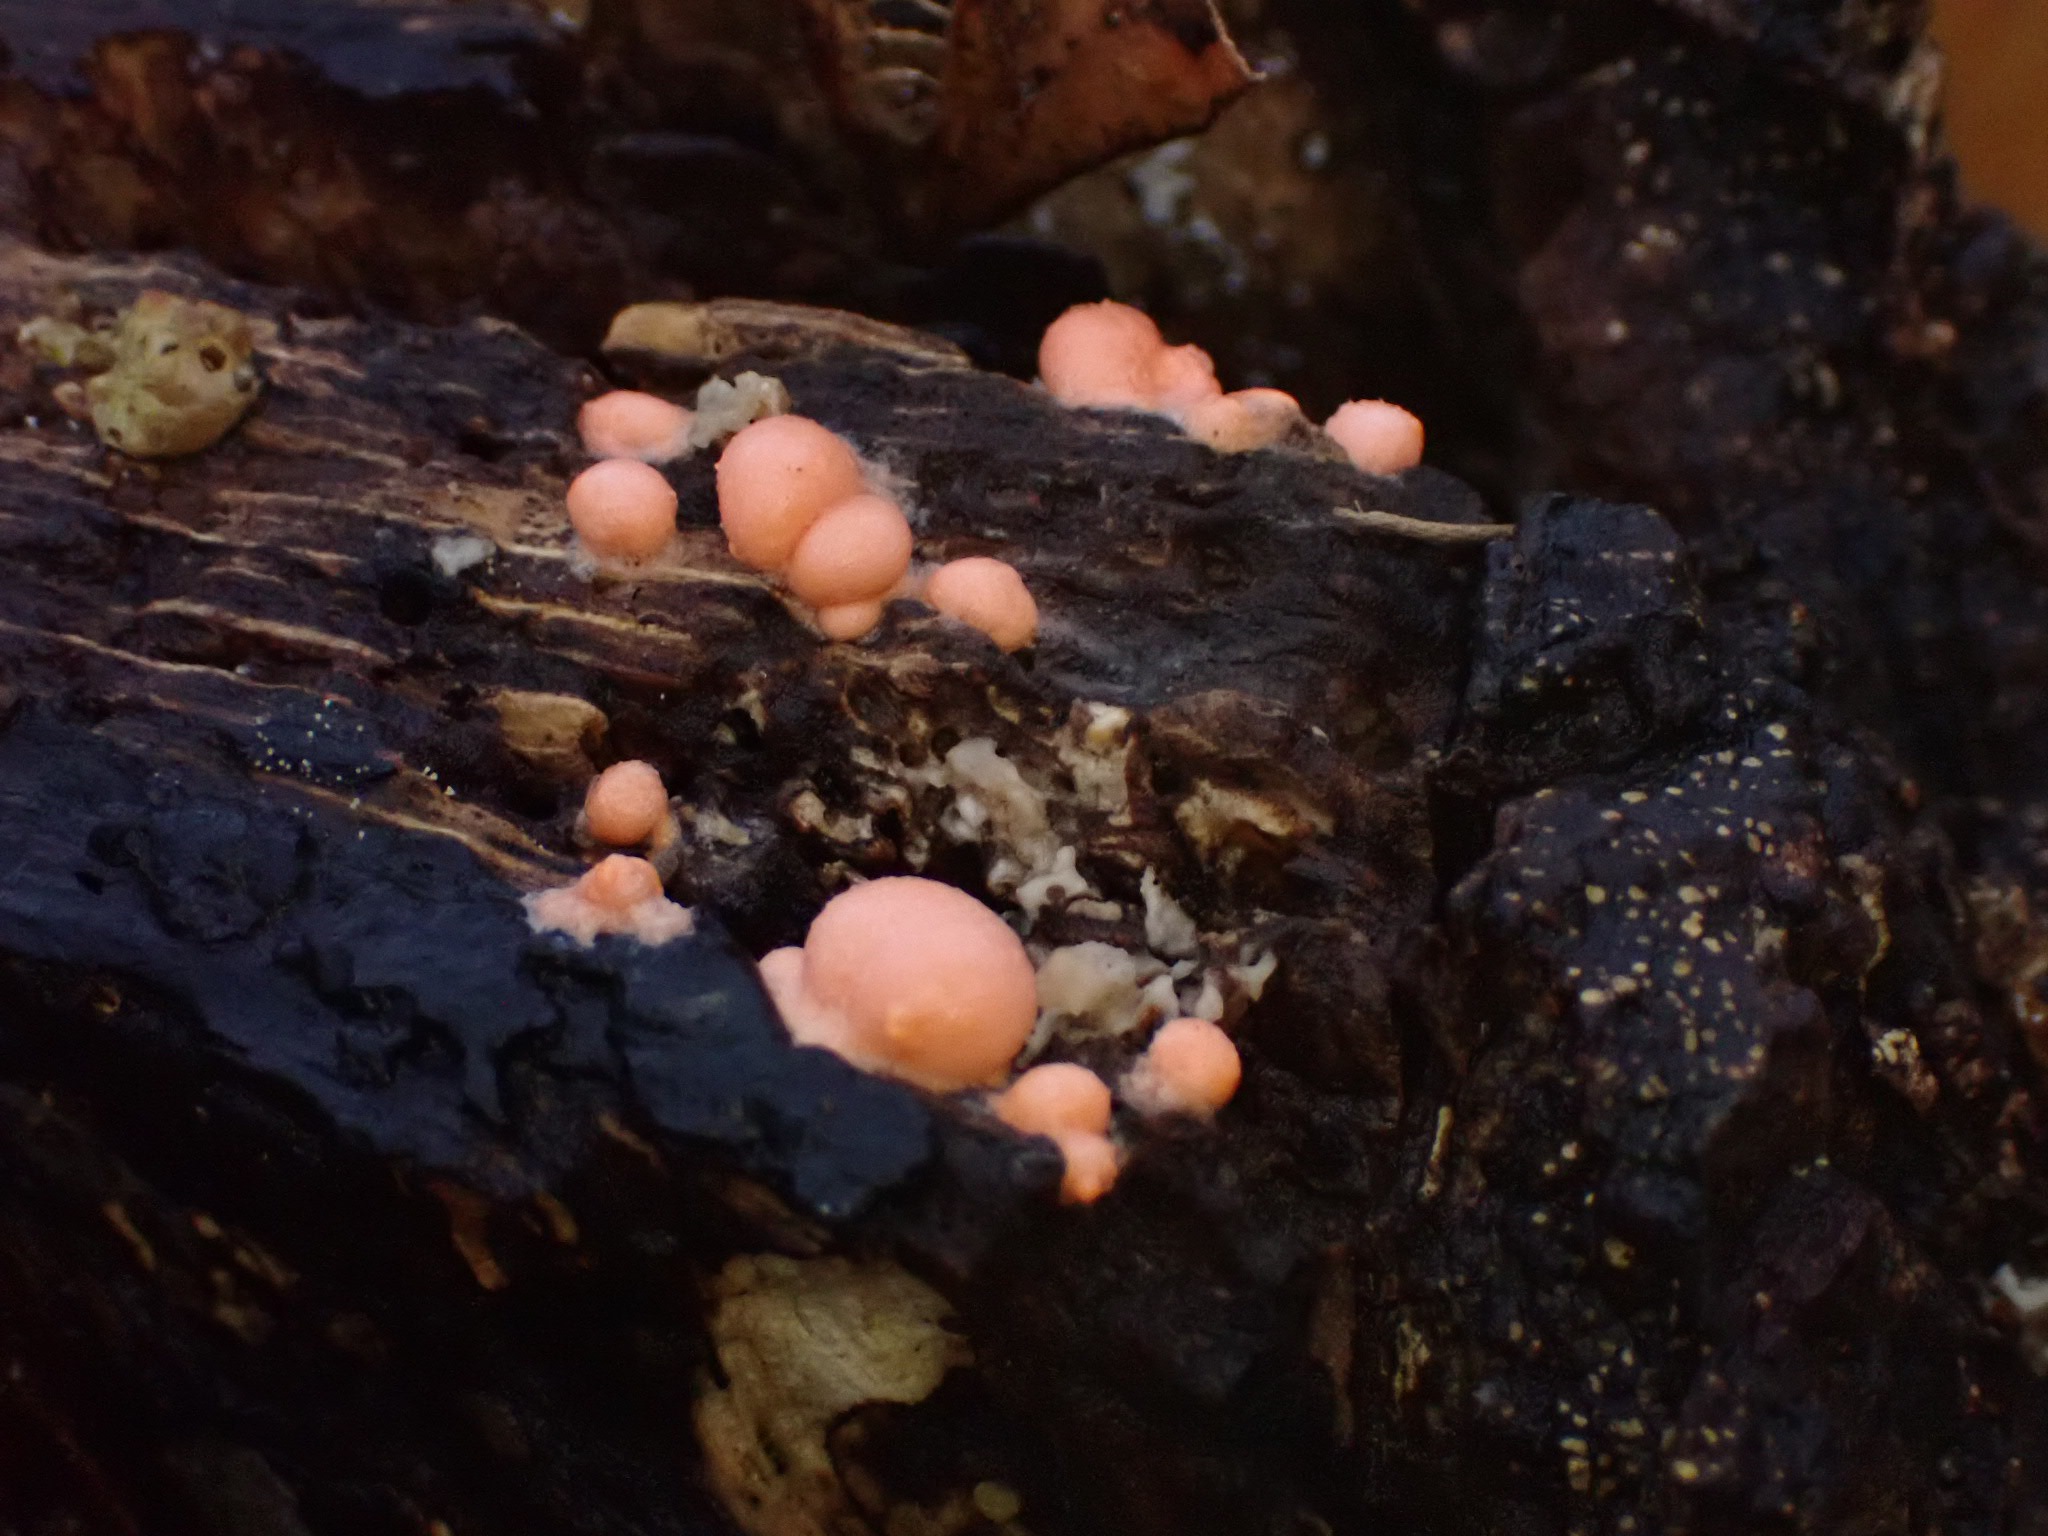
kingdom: Protozoa
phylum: Mycetozoa
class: Myxomycetes
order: Cribrariales
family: Tubiferaceae
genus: Lycogala
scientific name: Lycogala epidendrum
